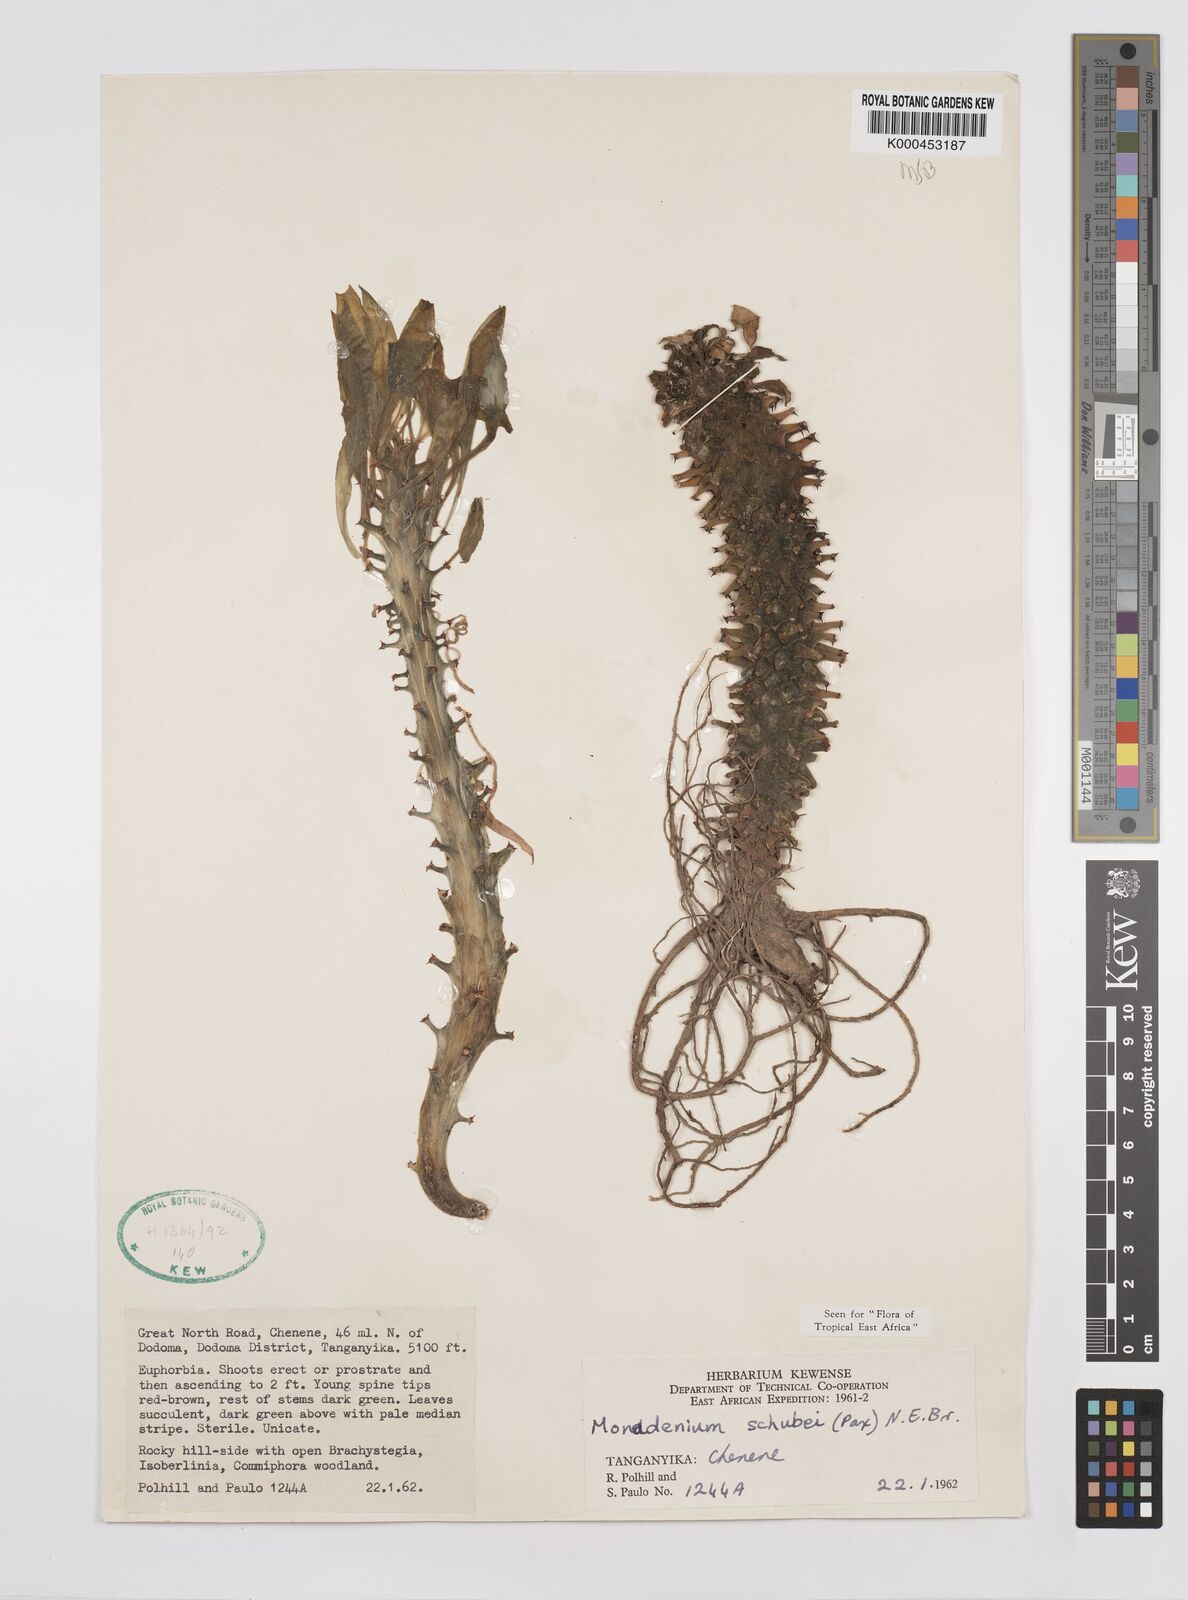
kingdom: Plantae
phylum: Tracheophyta
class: Magnoliopsida
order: Malpighiales
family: Euphorbiaceae
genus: Euphorbia
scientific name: Euphorbia schubei
